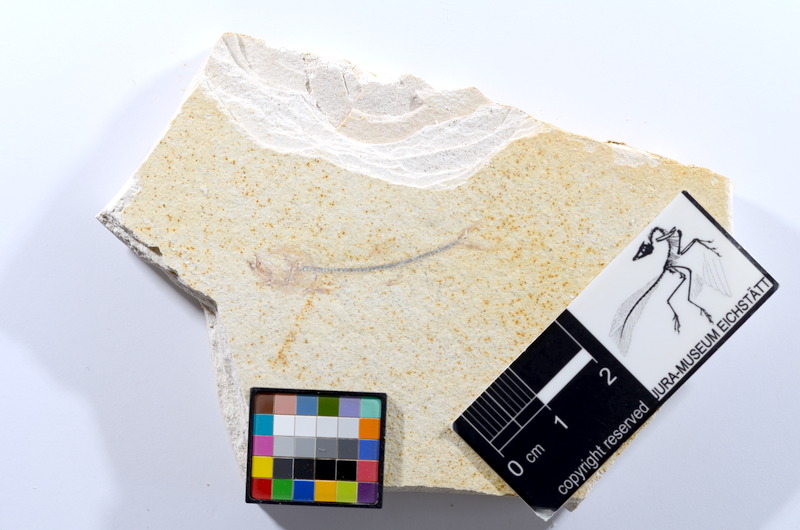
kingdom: Animalia
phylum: Chordata
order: Salmoniformes
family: Orthogonikleithridae
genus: Orthogonikleithrus
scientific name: Orthogonikleithrus hoelli
